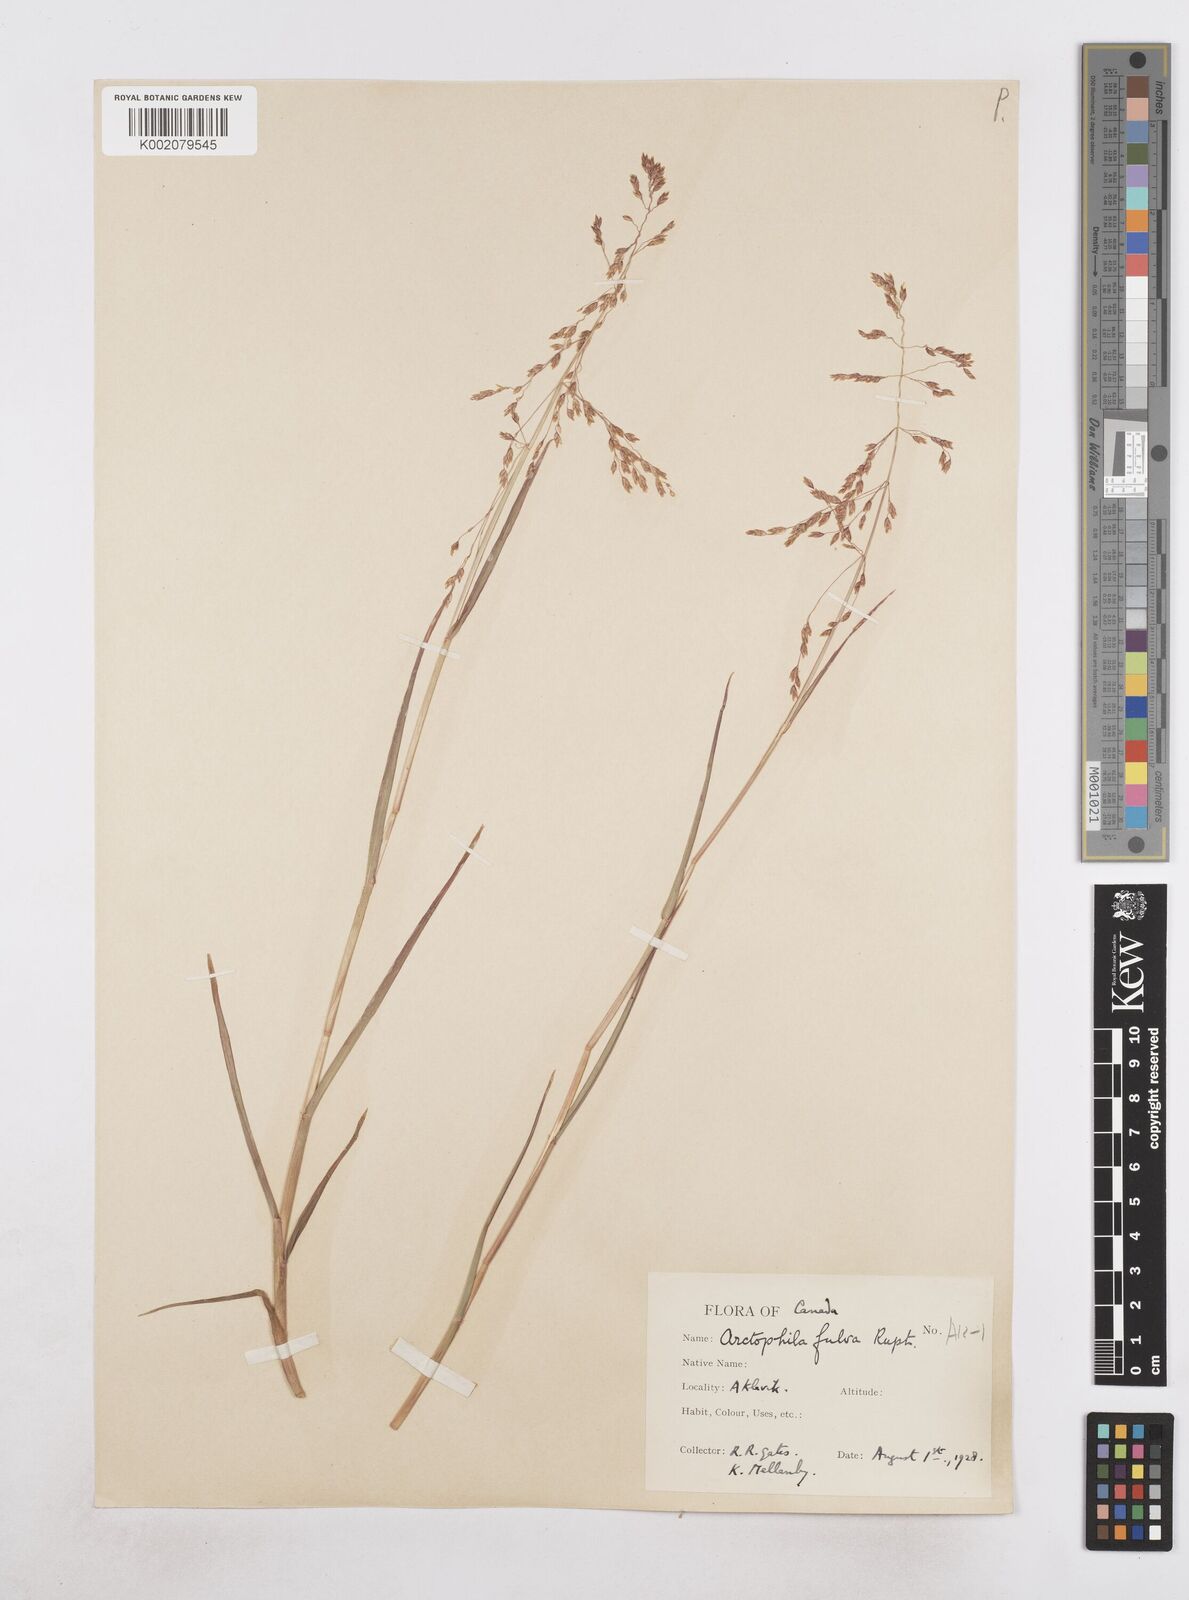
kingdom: Plantae
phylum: Tracheophyta
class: Liliopsida
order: Poales
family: Poaceae
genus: Dupontia
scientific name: Dupontia fulva
